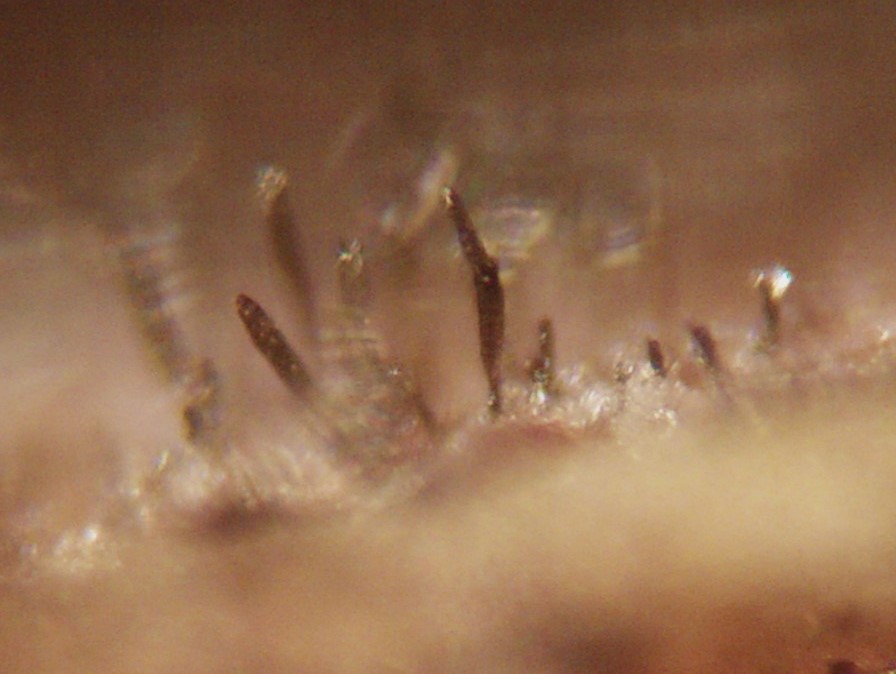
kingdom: Fungi
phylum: Ascomycota
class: Dothideomycetes
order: Pleosporales
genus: Sporidesmium
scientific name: Sporidesmium
